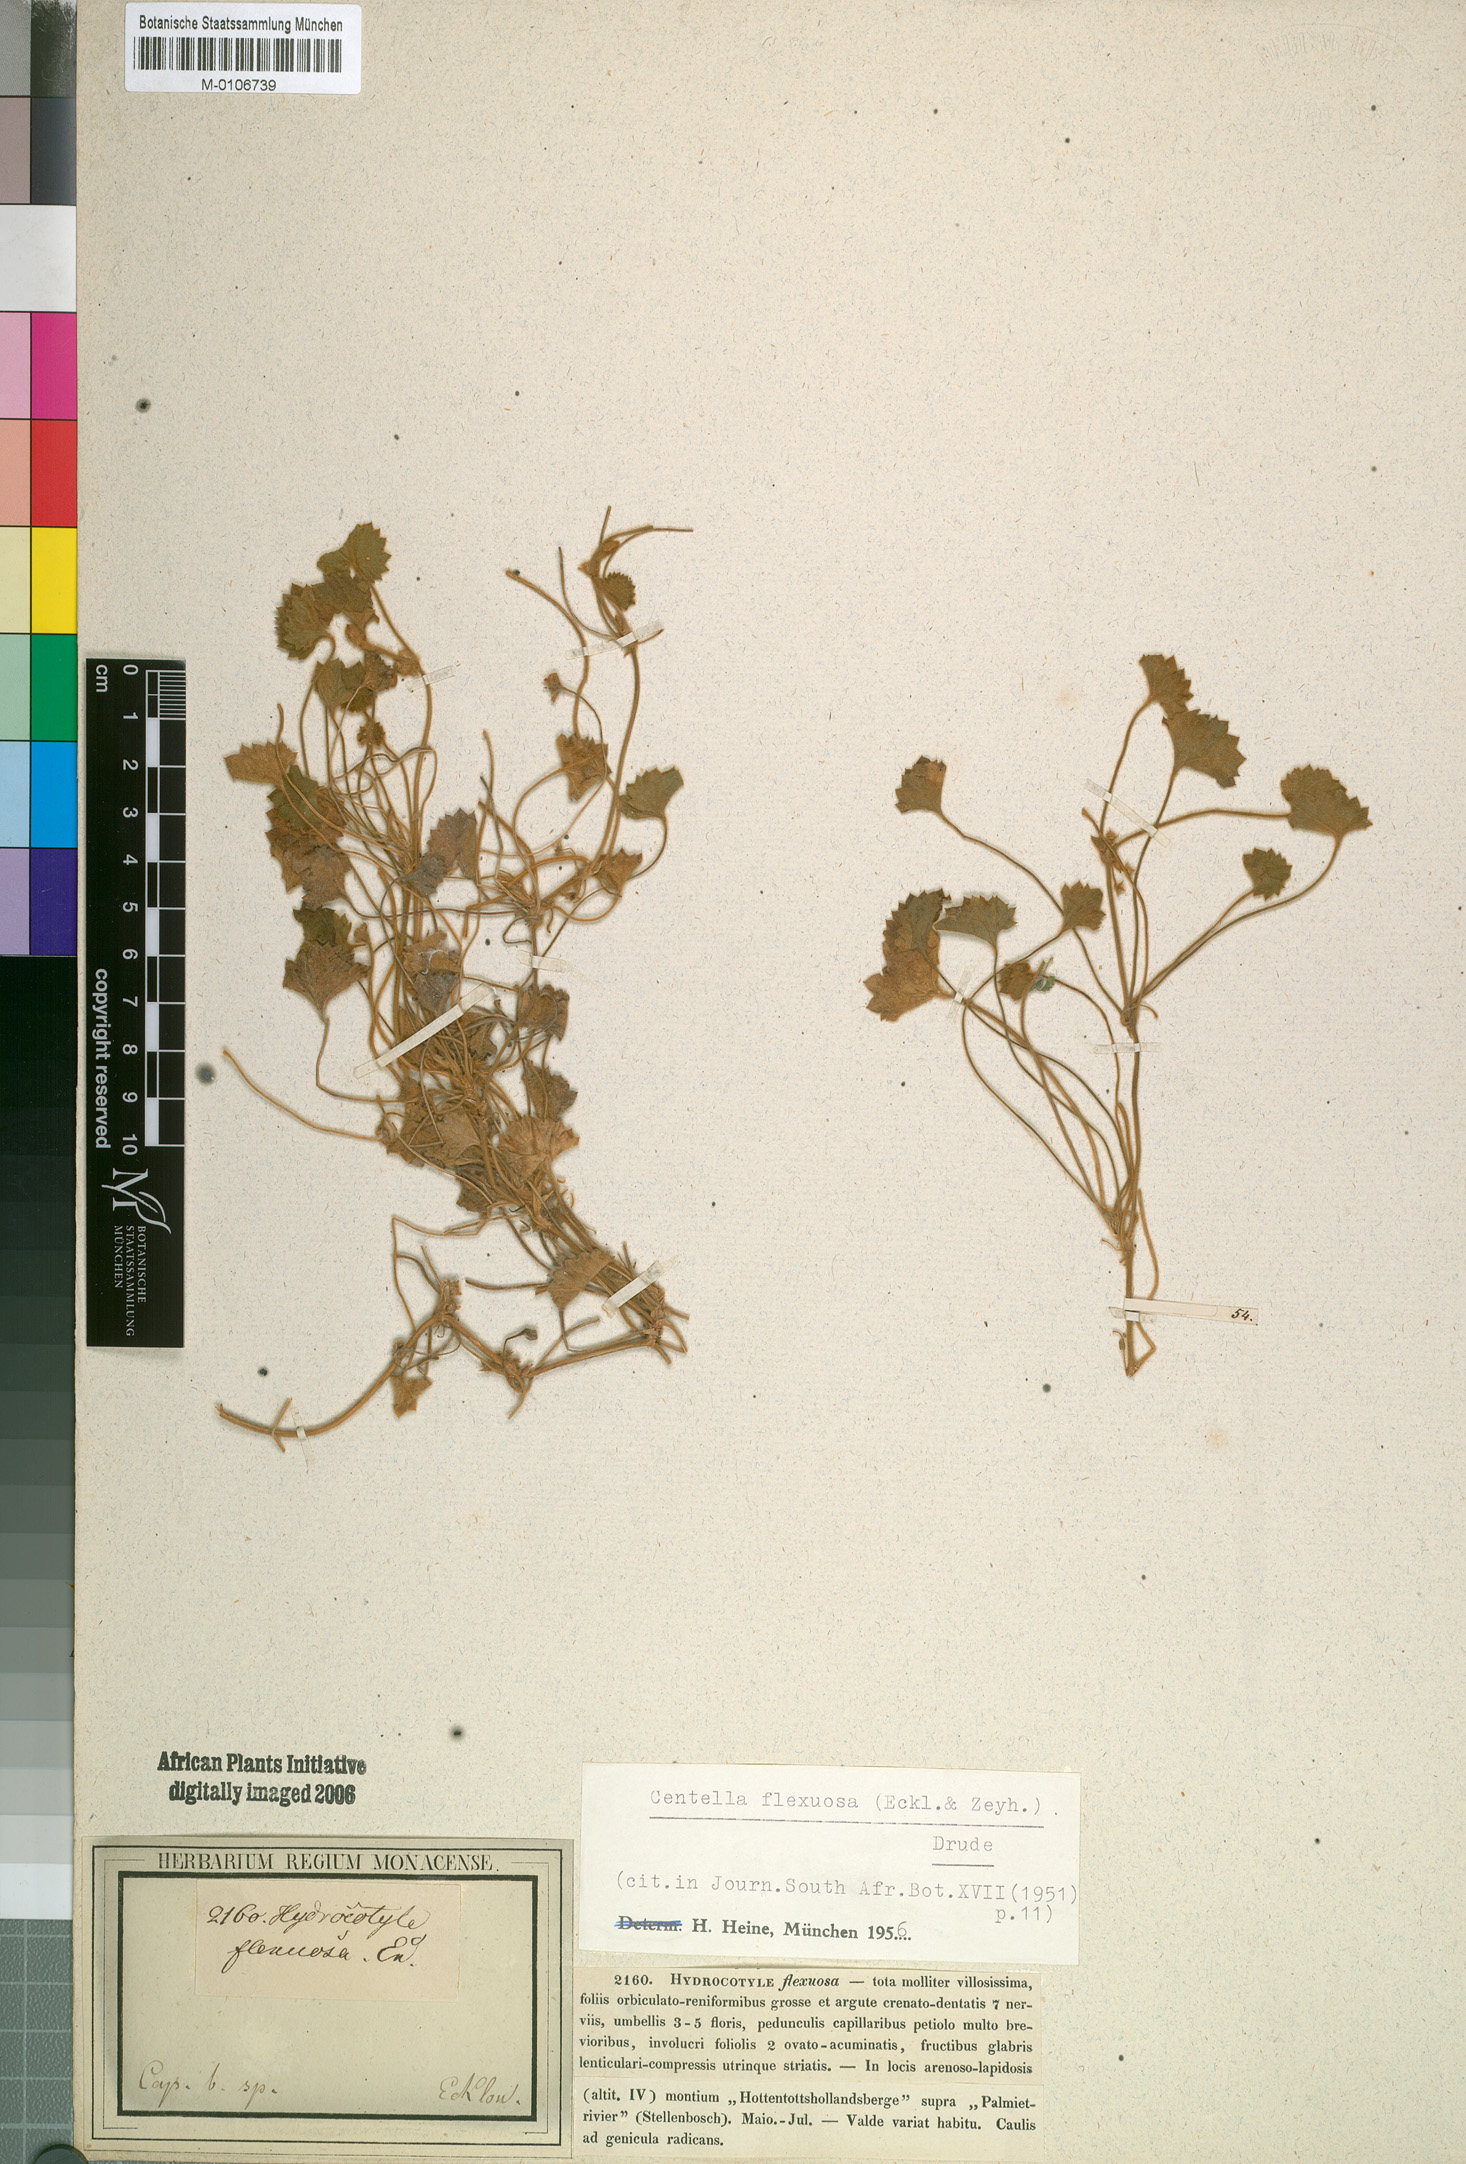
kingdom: Plantae
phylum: Tracheophyta
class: Magnoliopsida
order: Apiales
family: Apiaceae
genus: Centella
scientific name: Centella flexuosa
